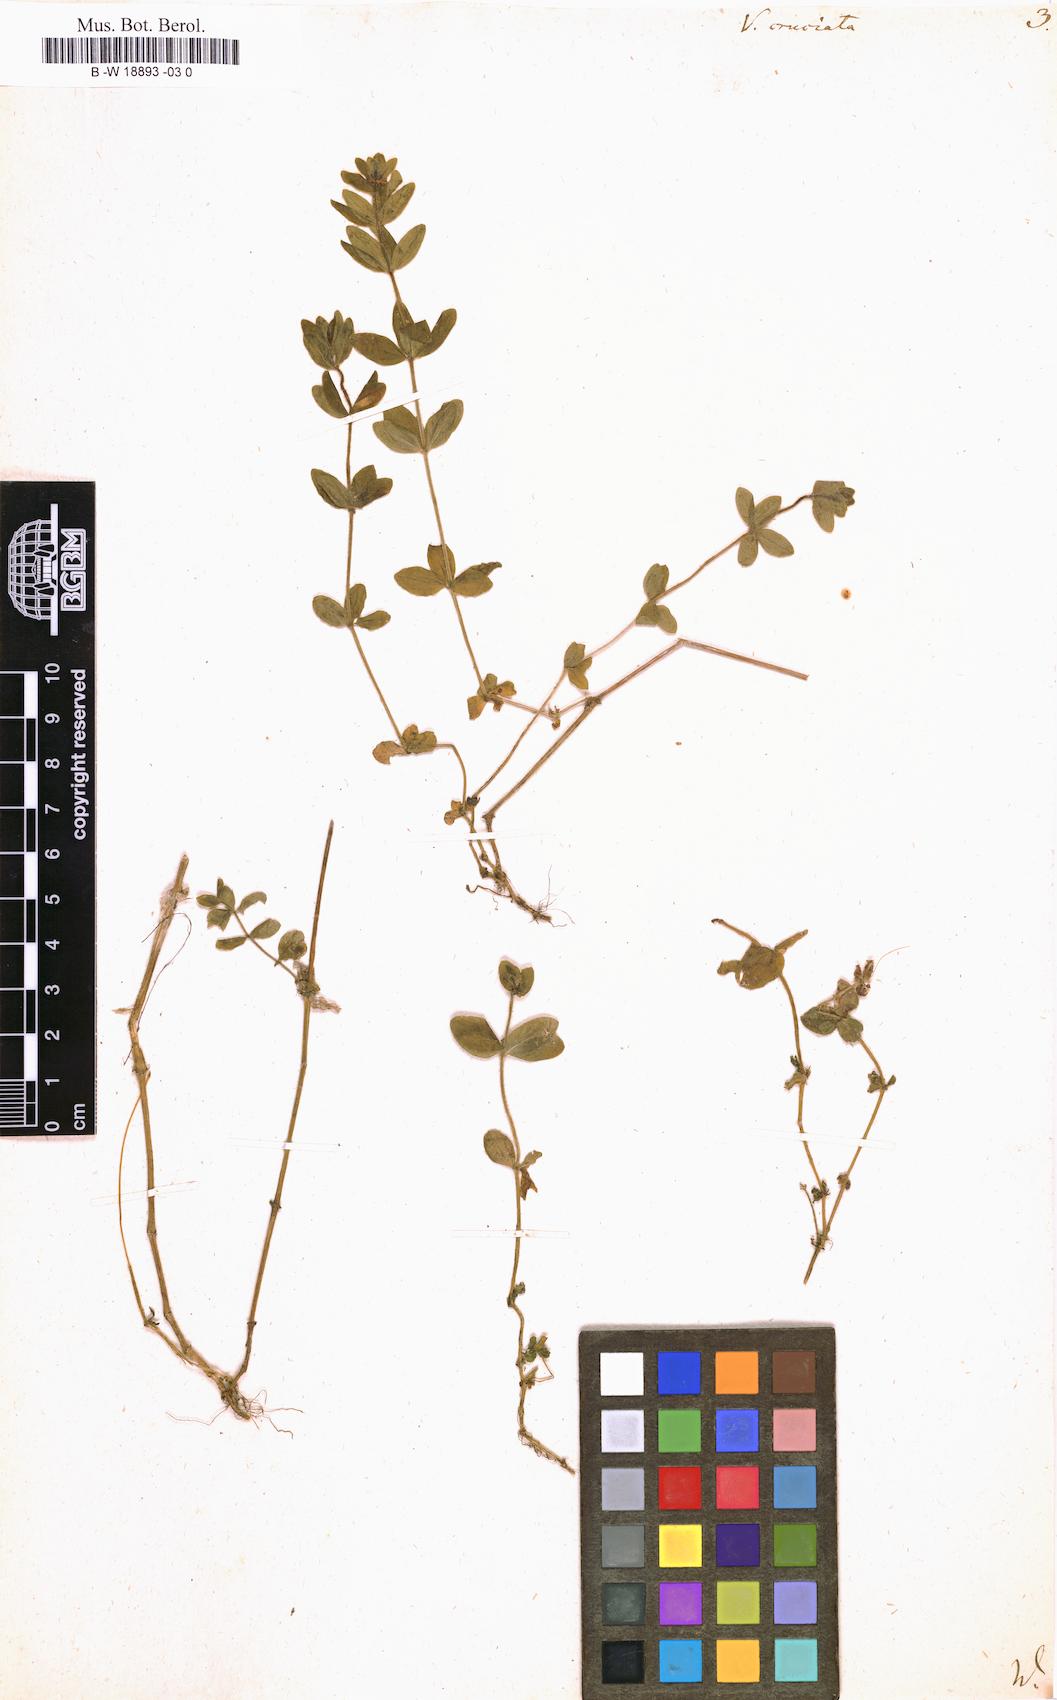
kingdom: Plantae
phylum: Tracheophyta
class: Magnoliopsida
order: Gentianales
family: Rubiaceae
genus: Cruciata
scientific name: Cruciata laevipes
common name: Crosswort
